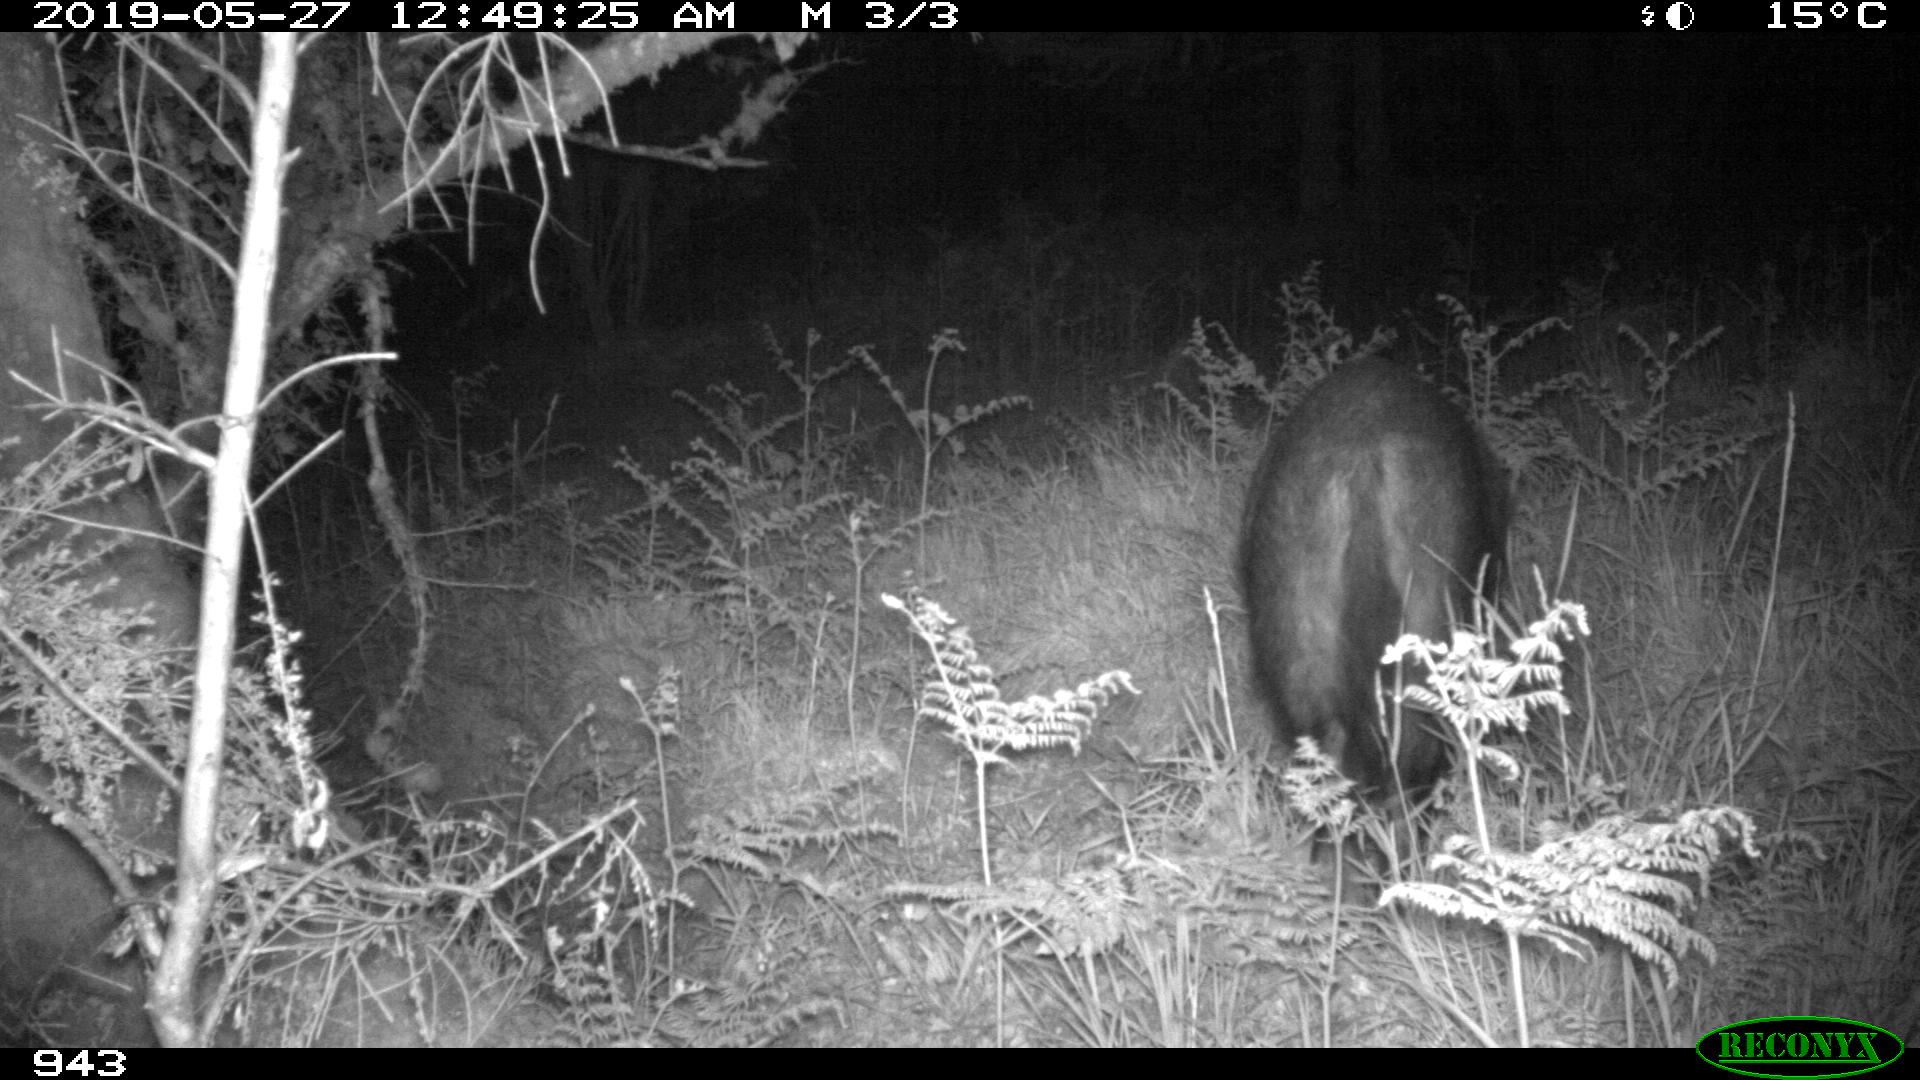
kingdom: Animalia
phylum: Chordata
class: Mammalia
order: Artiodactyla
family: Suidae
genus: Sus
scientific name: Sus scrofa
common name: Wild boar
